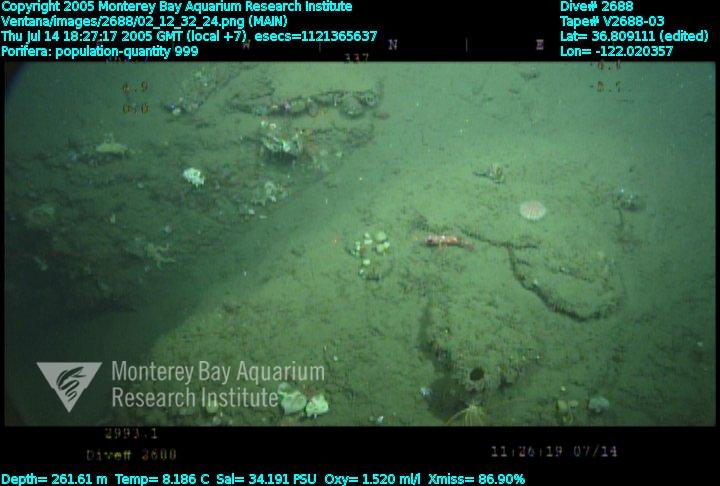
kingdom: Animalia
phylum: Porifera
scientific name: Porifera
